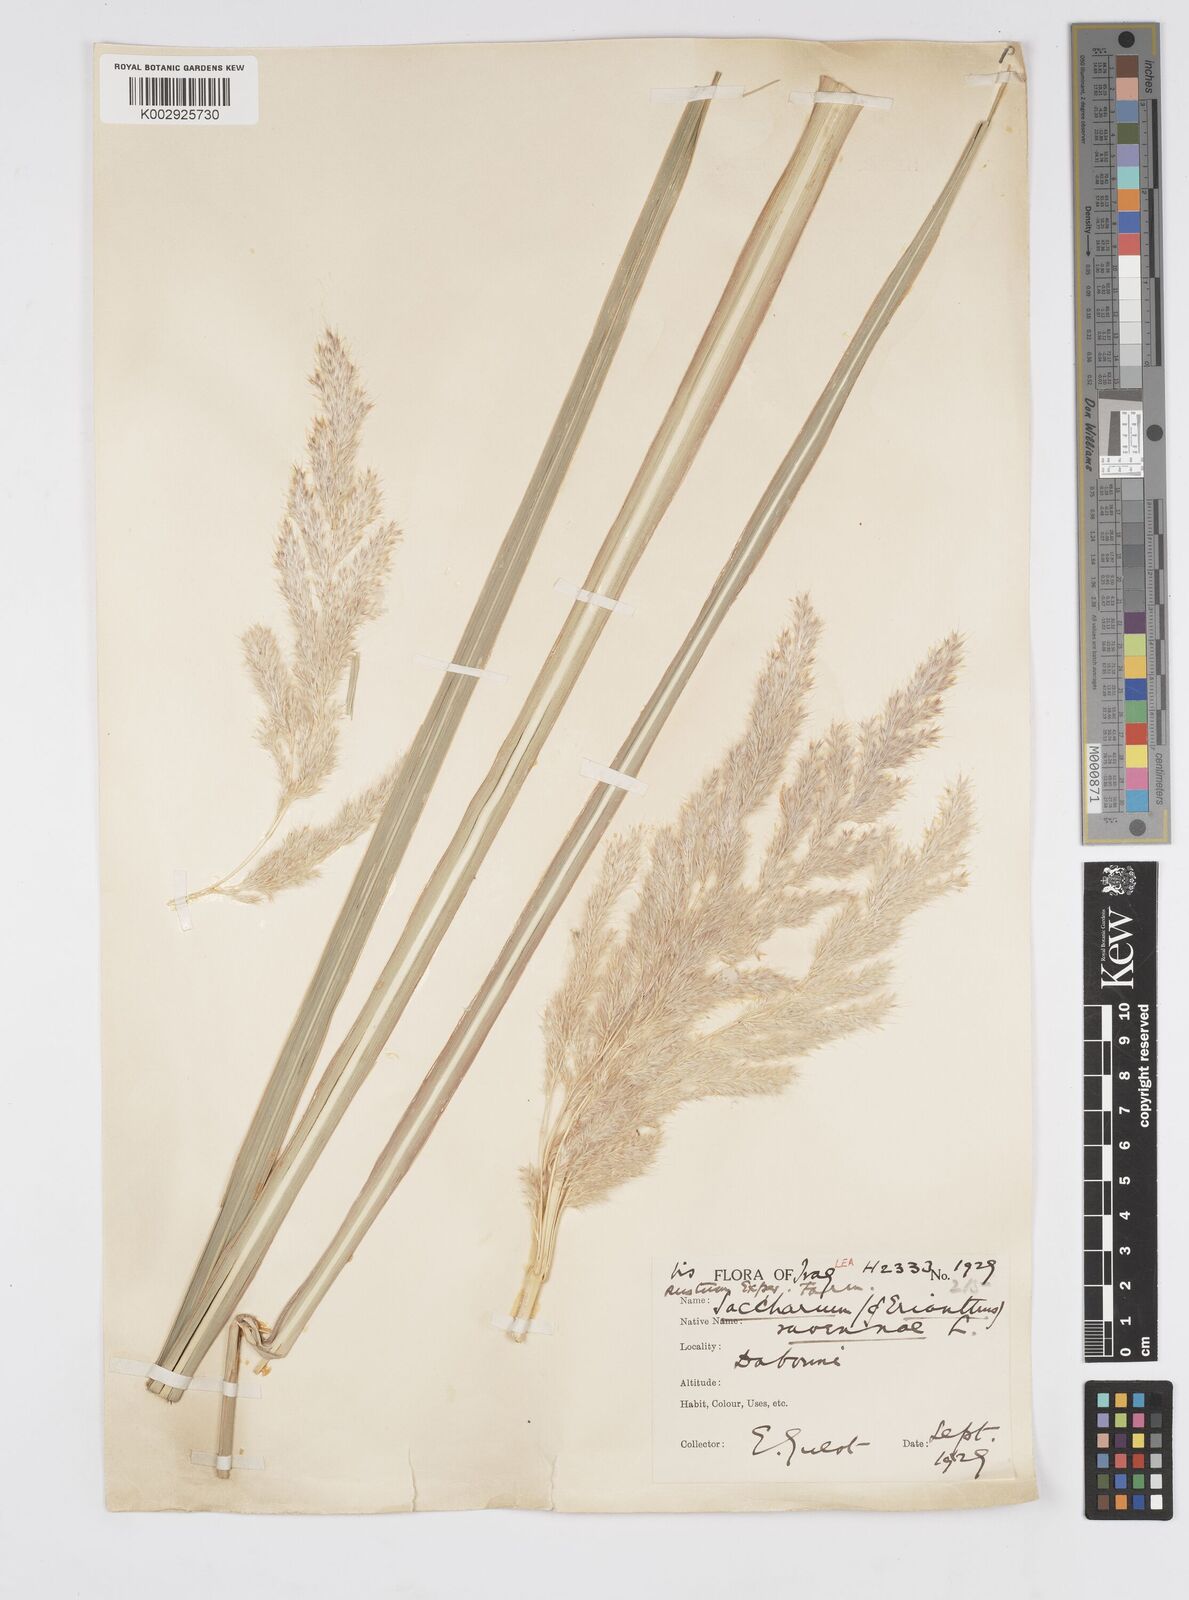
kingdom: Plantae
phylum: Tracheophyta
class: Liliopsida
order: Poales
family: Poaceae
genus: Tripidium
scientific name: Tripidium ravennae
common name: Ravenna grass
